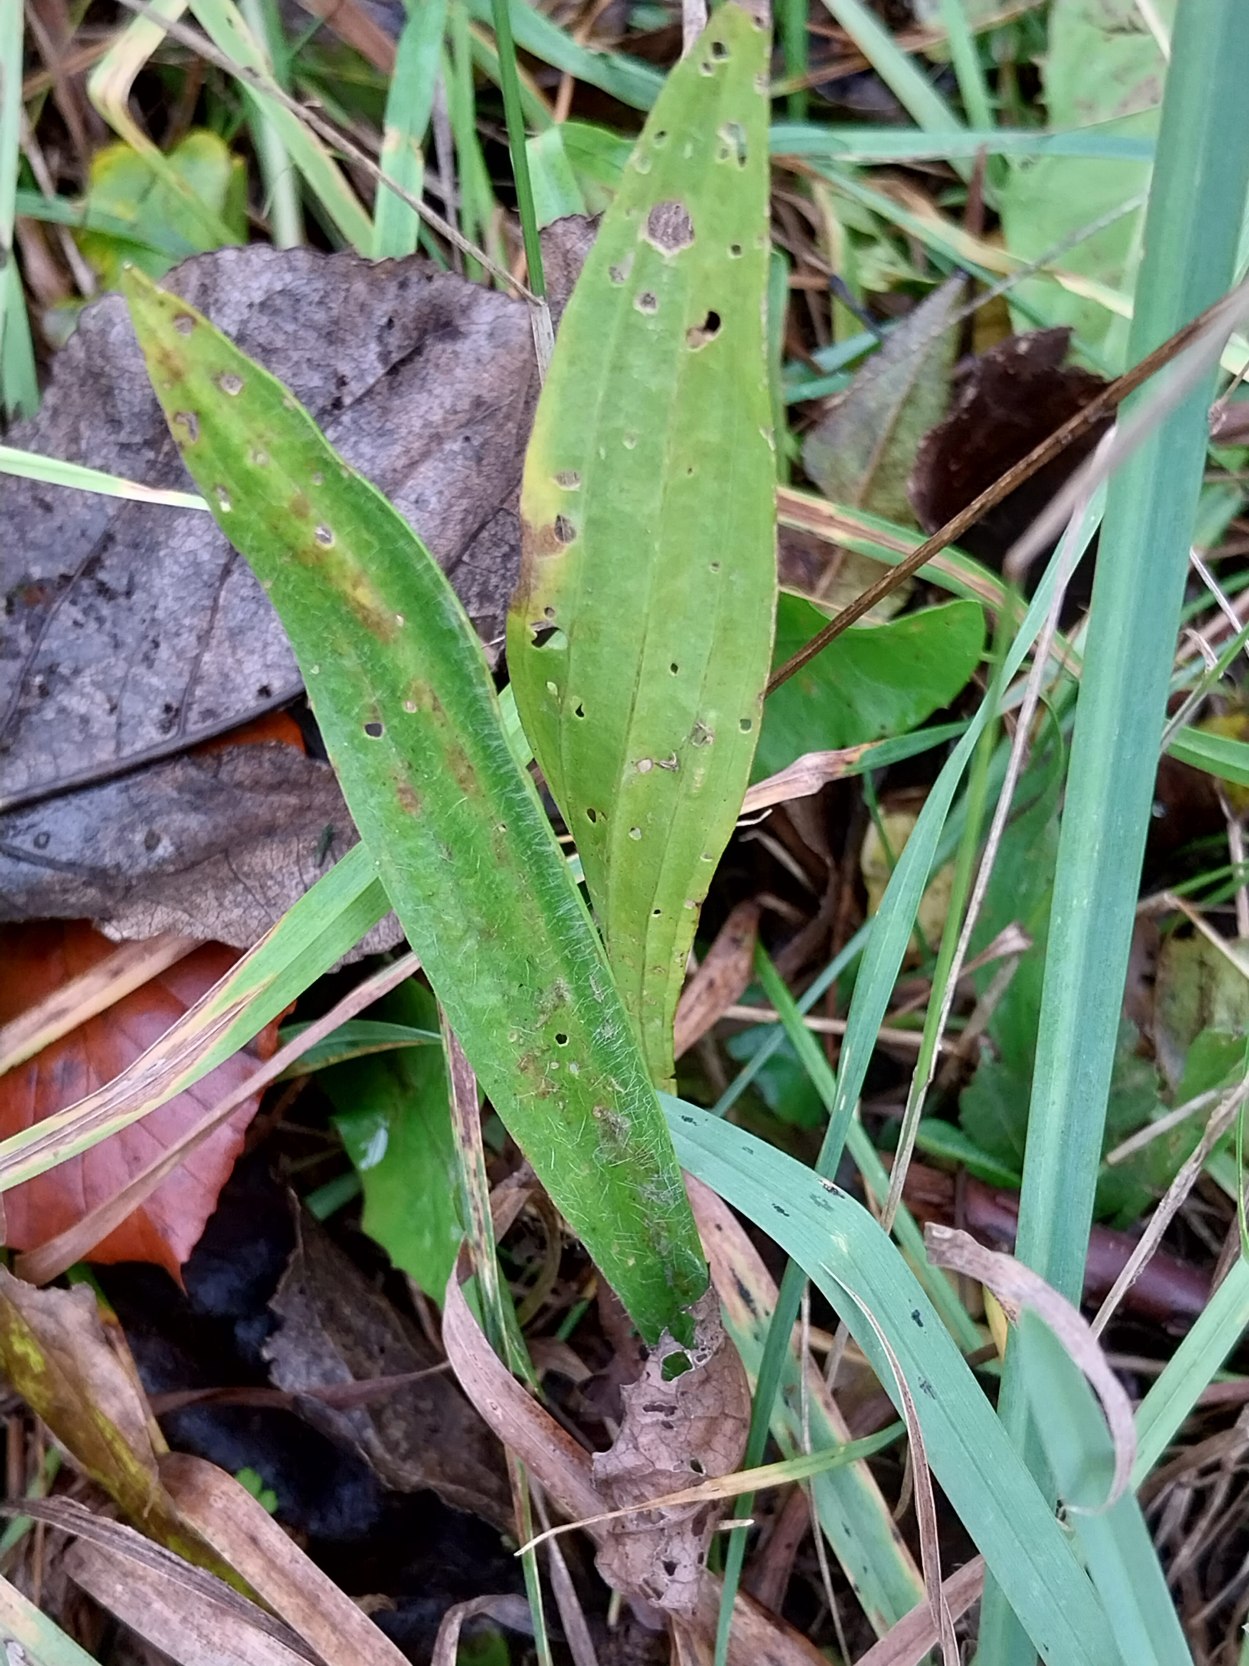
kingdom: Plantae
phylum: Tracheophyta
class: Magnoliopsida
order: Lamiales
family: Plantaginaceae
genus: Plantago
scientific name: Plantago lanceolata
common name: Lancet-vejbred
